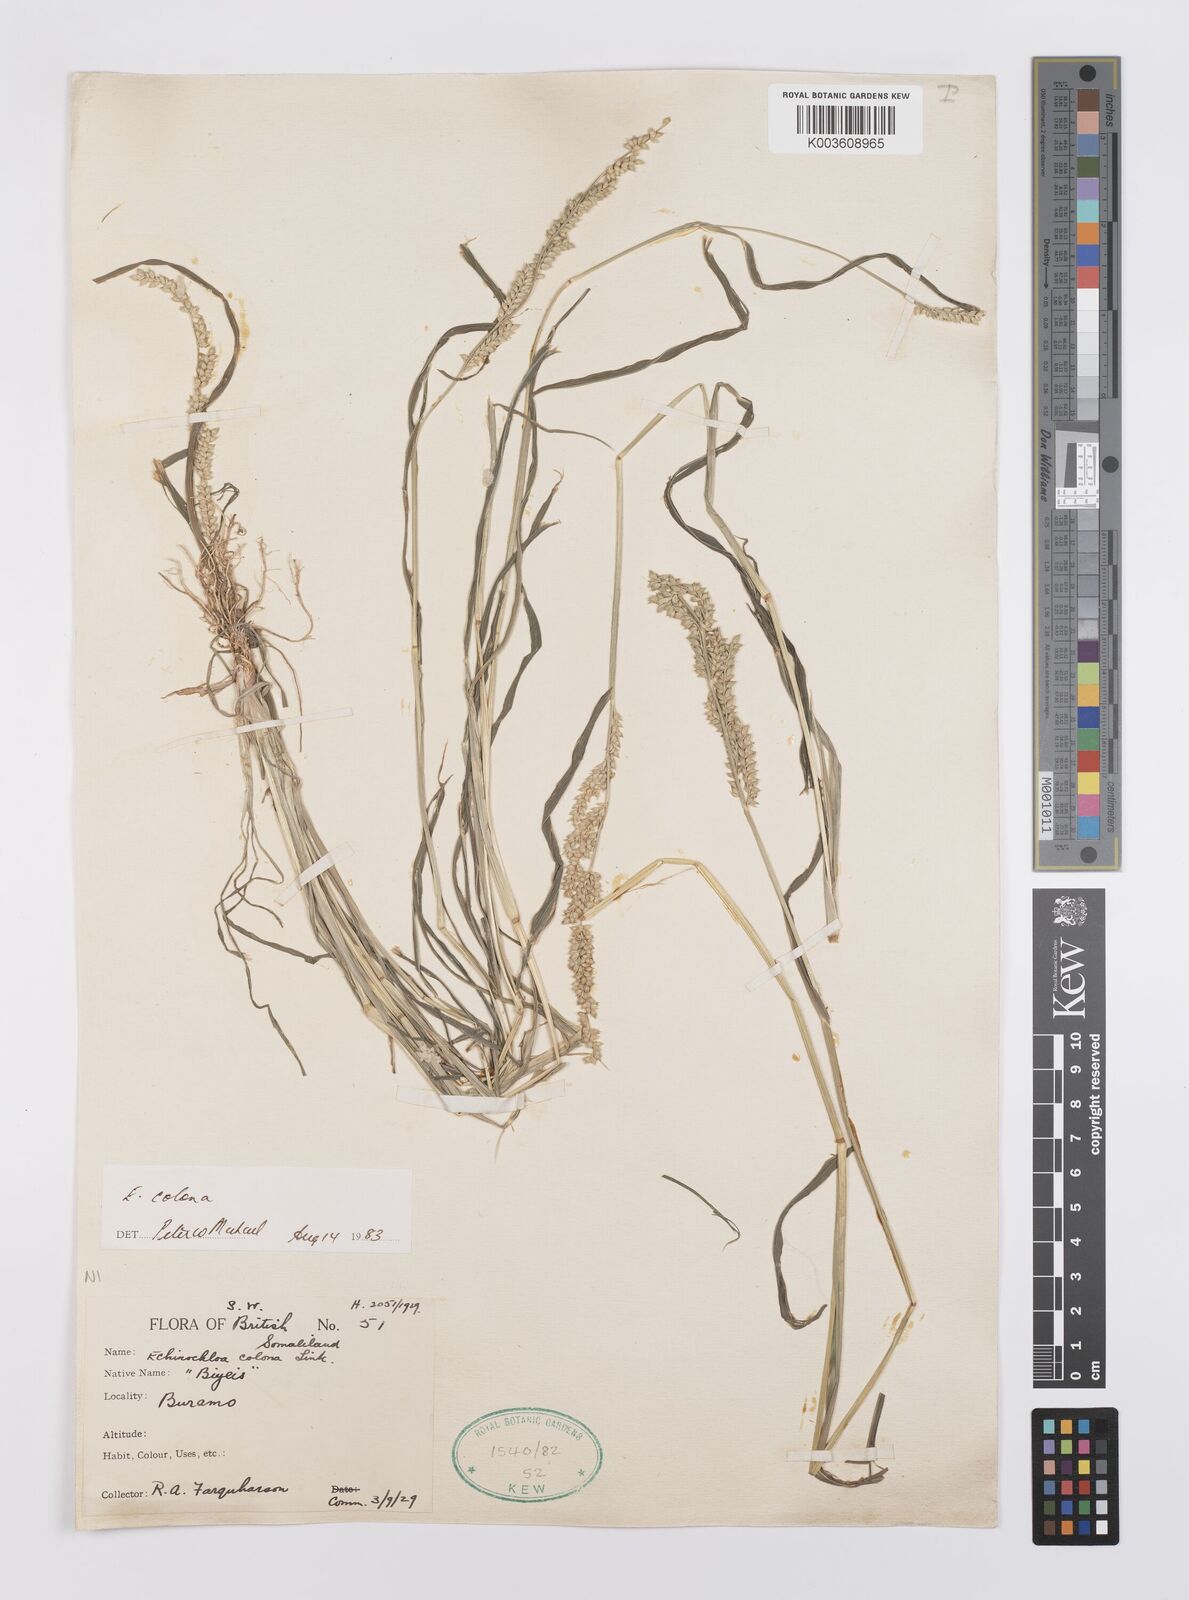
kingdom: Plantae
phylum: Tracheophyta
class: Liliopsida
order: Poales
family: Poaceae
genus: Echinochloa
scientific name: Echinochloa colonum
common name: Jungle rice
